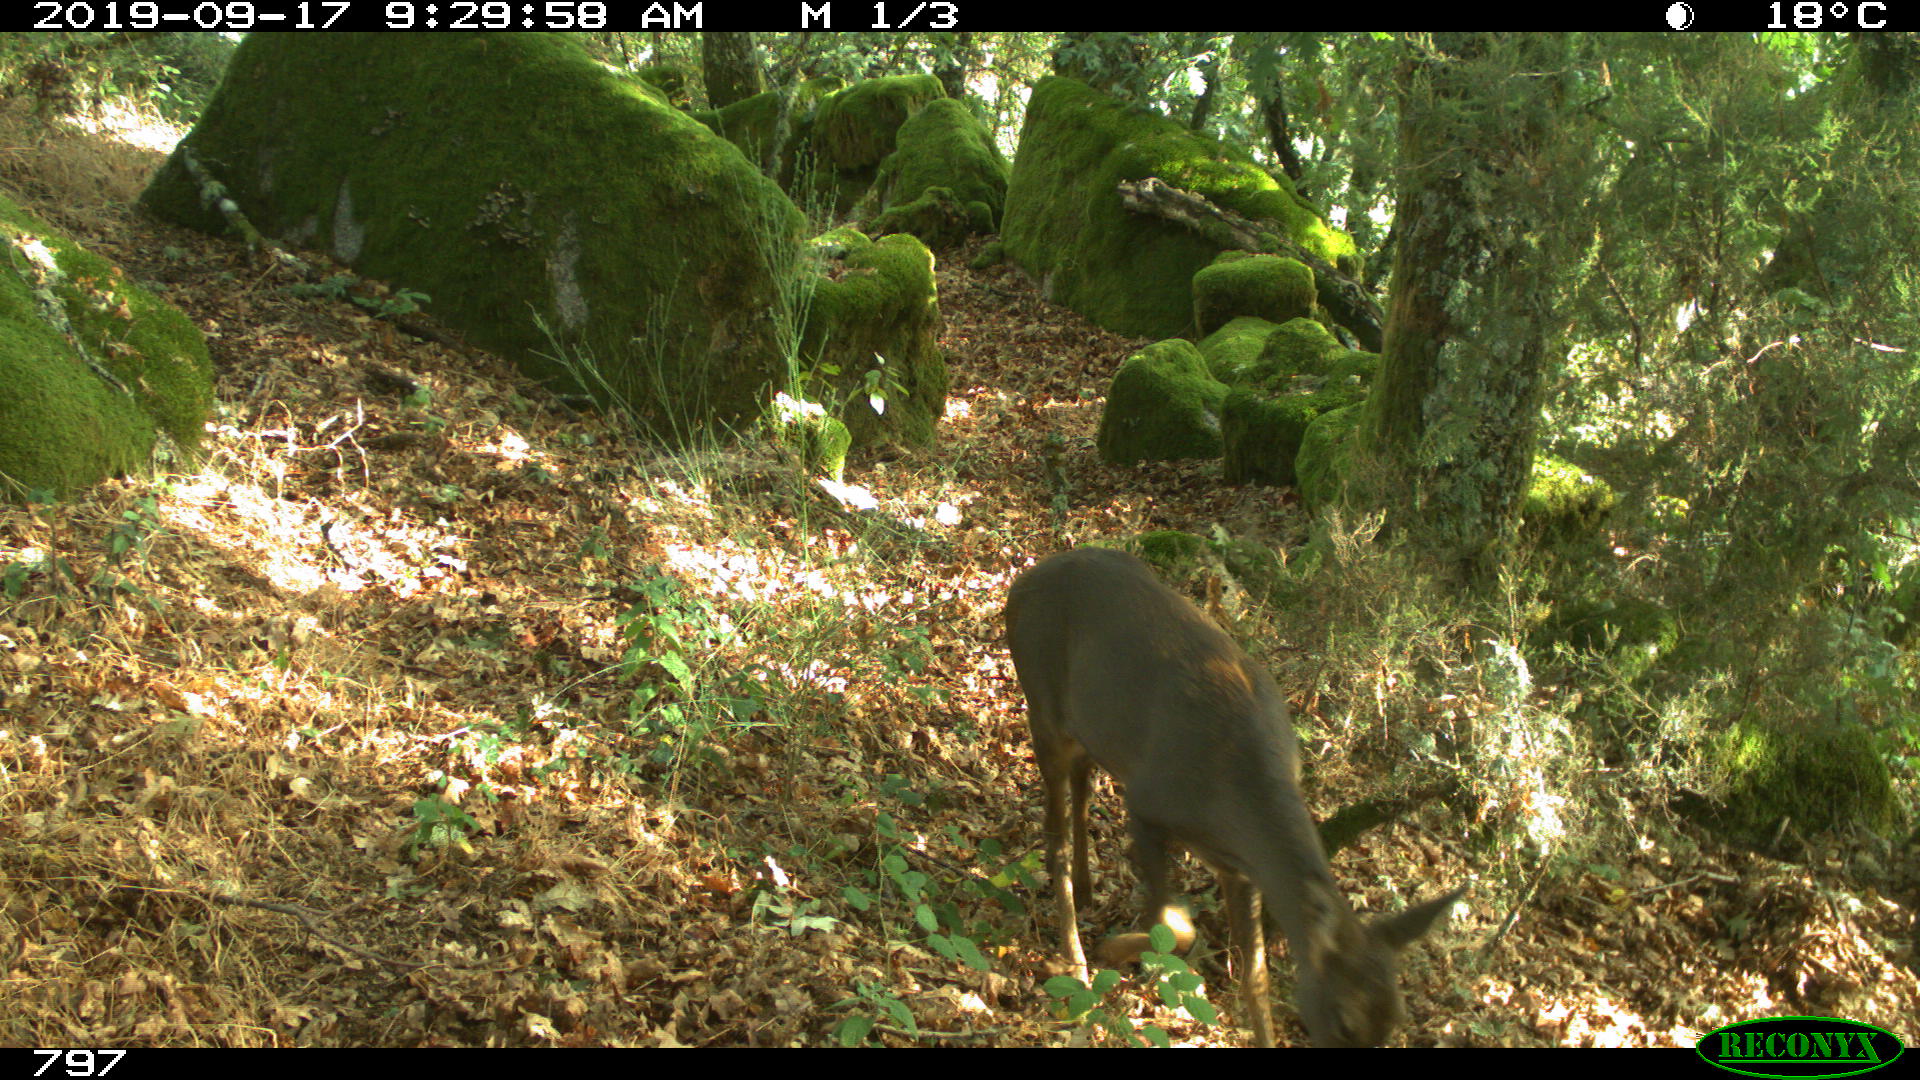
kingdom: Animalia
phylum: Chordata
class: Mammalia
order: Artiodactyla
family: Cervidae
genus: Capreolus
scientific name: Capreolus capreolus
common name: Western roe deer
